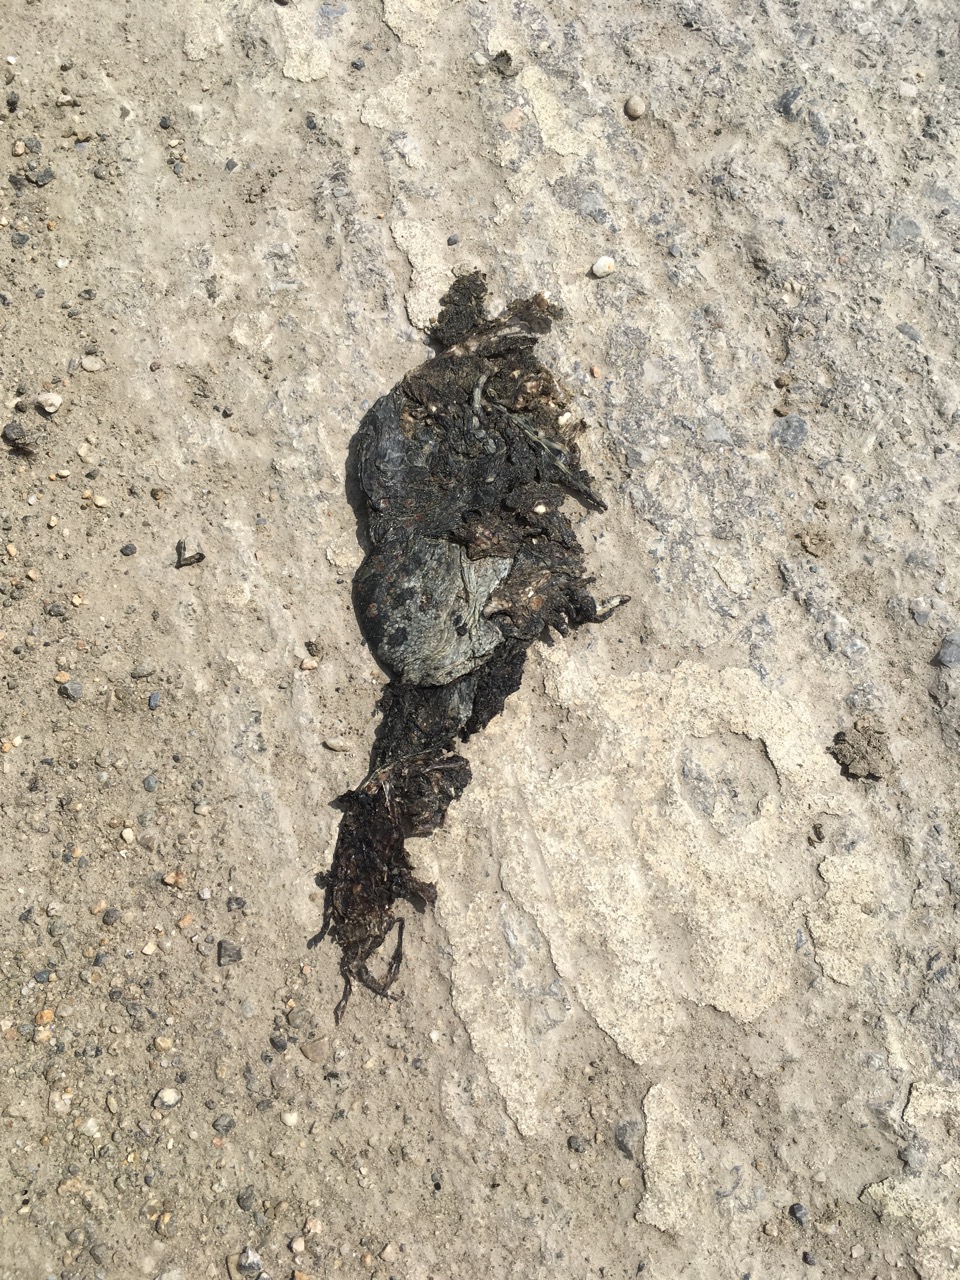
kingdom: Animalia
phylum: Chordata
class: Amphibia
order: Anura
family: Bufonidae
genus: Bufotes
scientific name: Bufotes viridis
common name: European green toad
